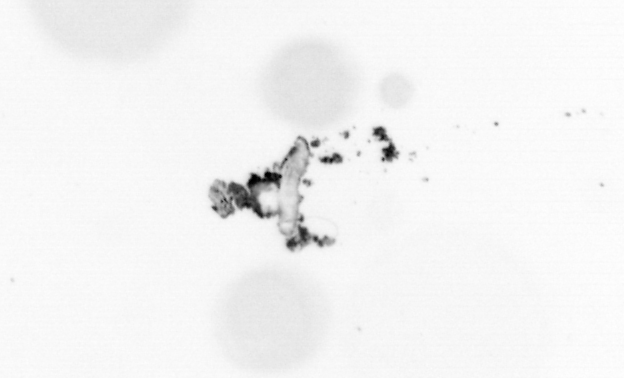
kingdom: Chromista
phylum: Ochrophyta
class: Bacillariophyceae
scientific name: Bacillariophyceae
